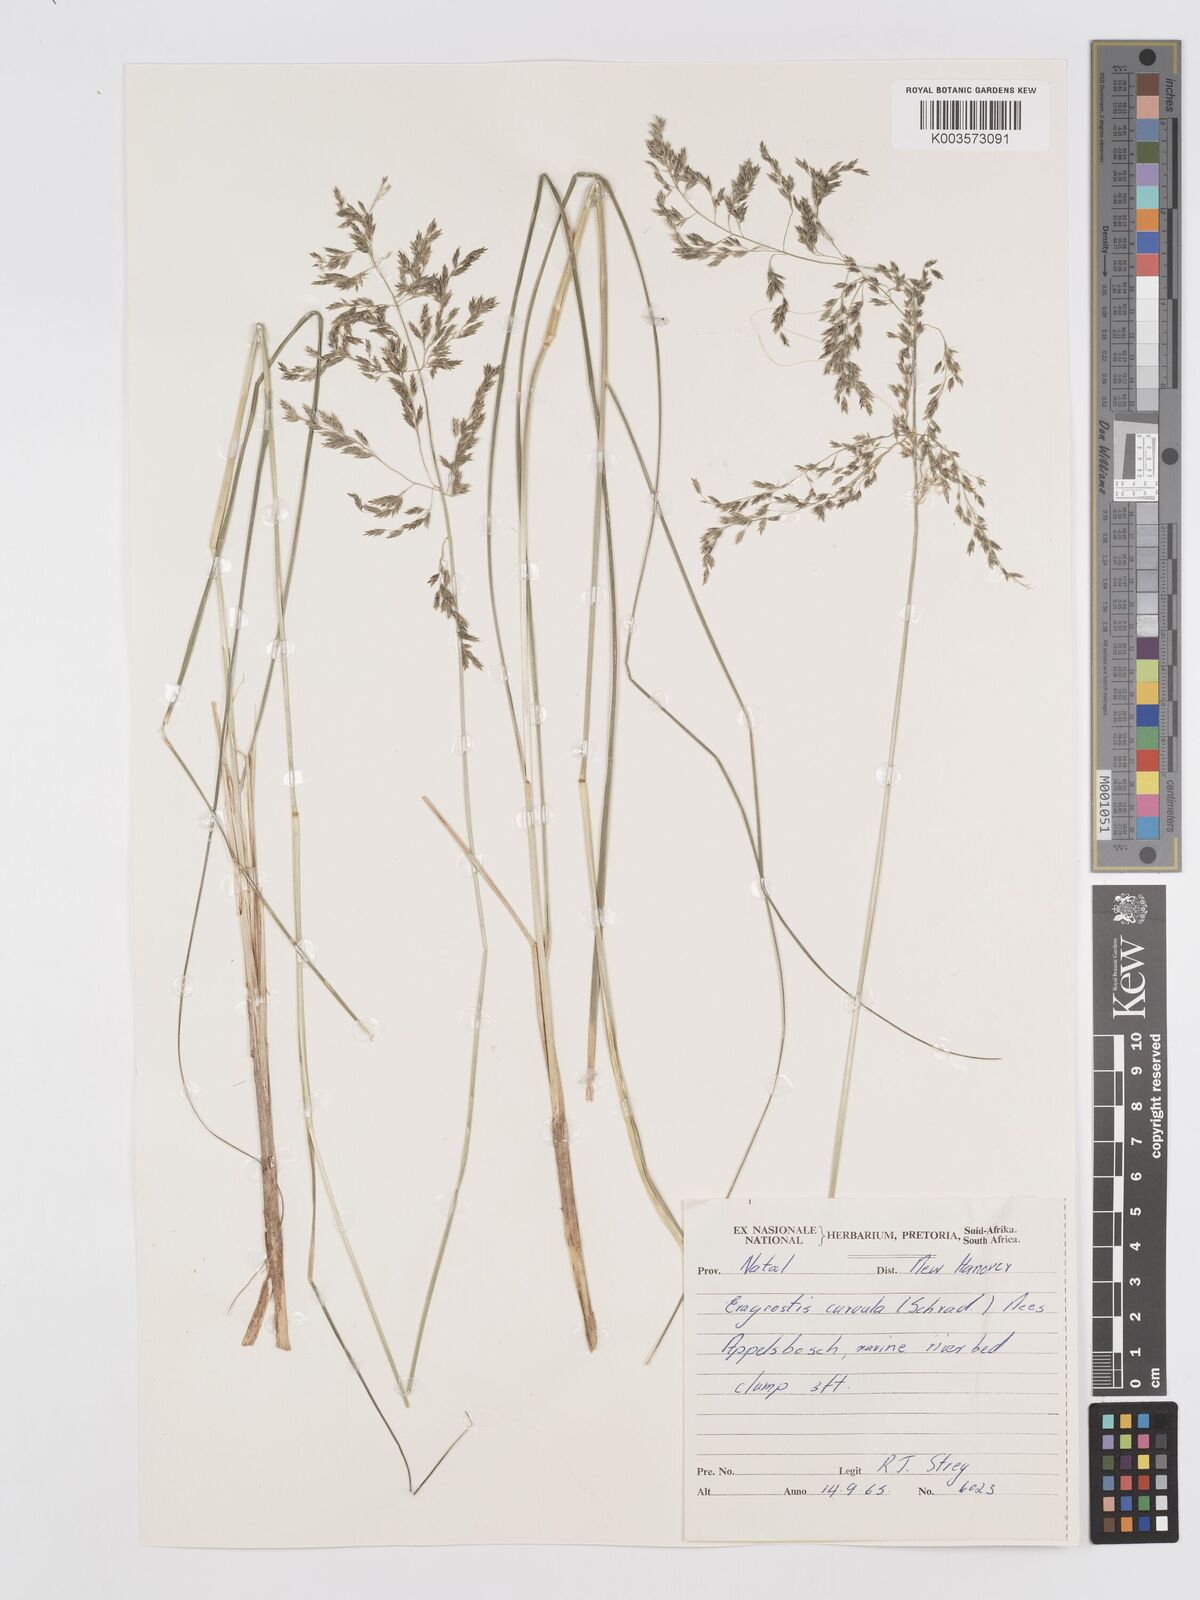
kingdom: Plantae
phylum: Tracheophyta
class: Liliopsida
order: Poales
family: Poaceae
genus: Eragrostis
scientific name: Eragrostis curvula
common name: African love-grass
